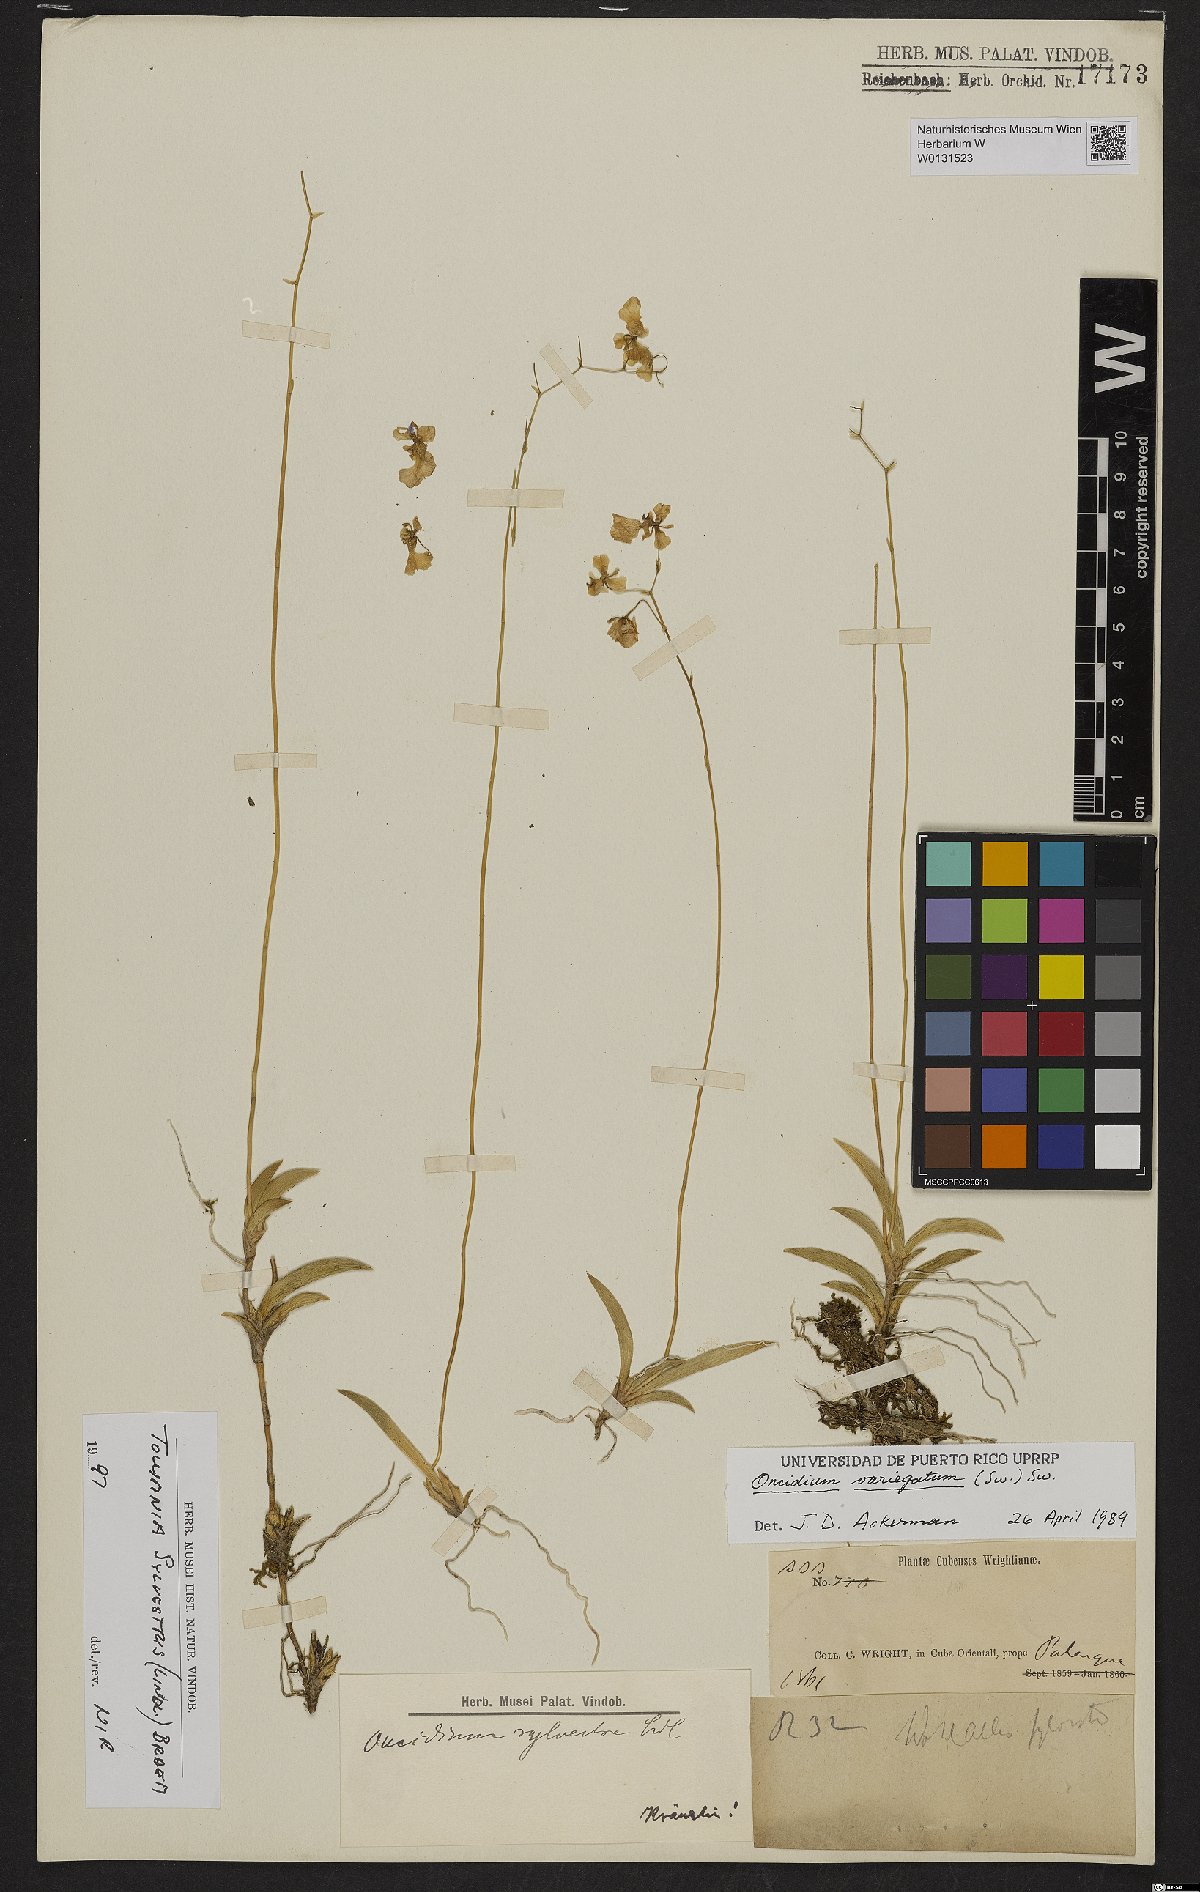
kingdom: Plantae
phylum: Tracheophyta
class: Liliopsida
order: Asparagales
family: Orchidaceae
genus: Tolumnia
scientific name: Tolumnia sylvestris
